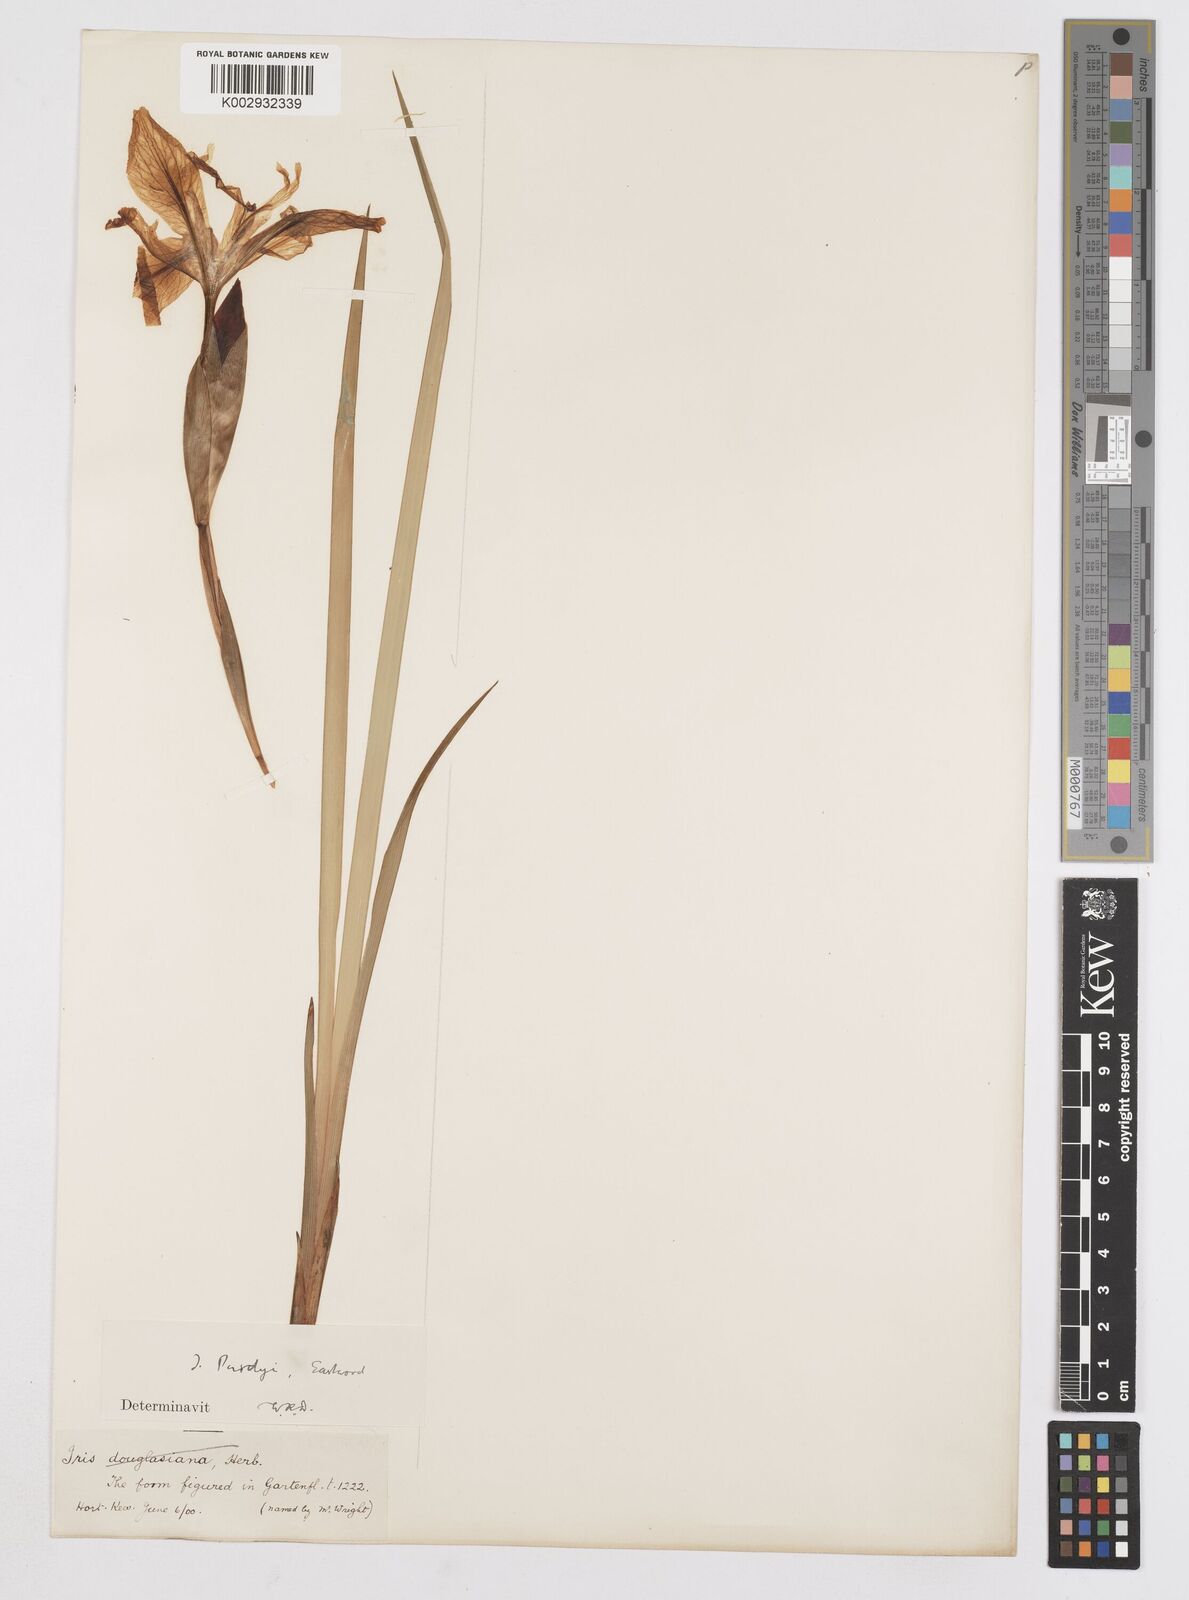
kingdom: Plantae
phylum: Tracheophyta
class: Liliopsida
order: Asparagales
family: Iridaceae
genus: Iris
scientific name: Iris purdyi
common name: Purdy's iris
